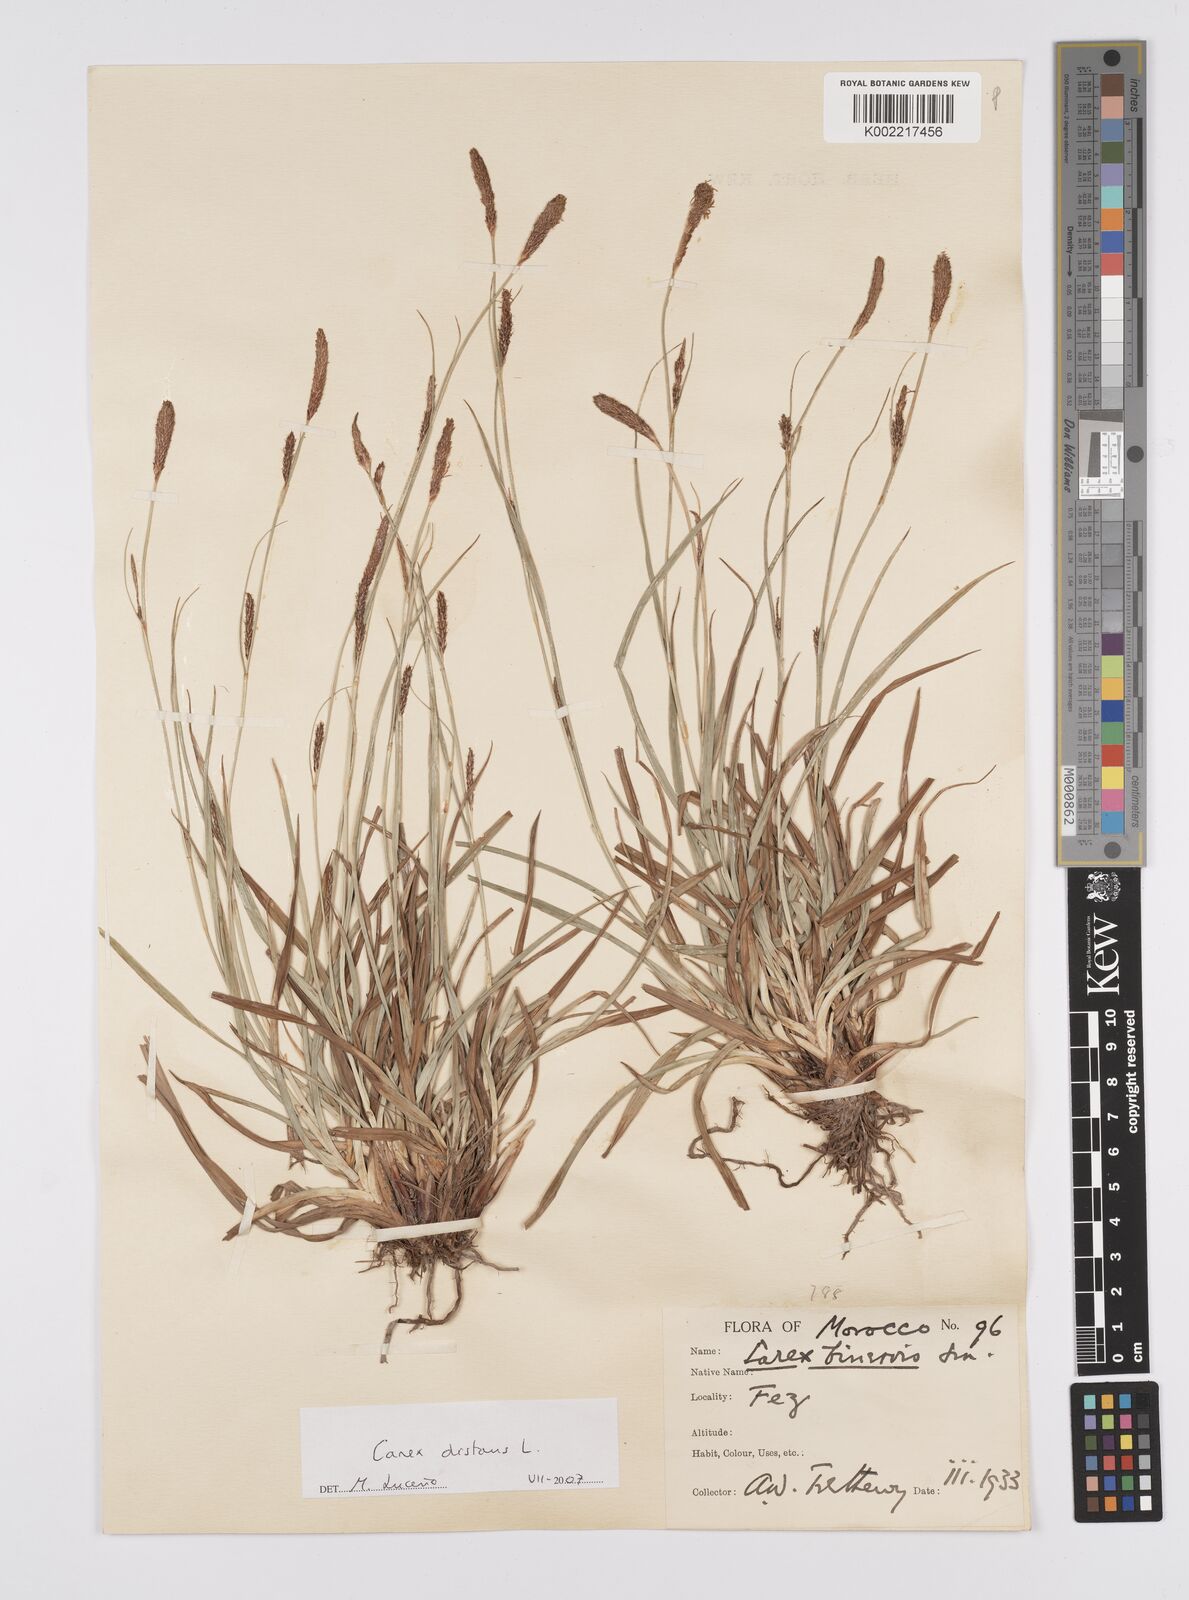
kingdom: Plantae
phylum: Tracheophyta
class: Liliopsida
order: Poales
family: Cyperaceae
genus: Carex
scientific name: Carex distans
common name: Distant sedge
